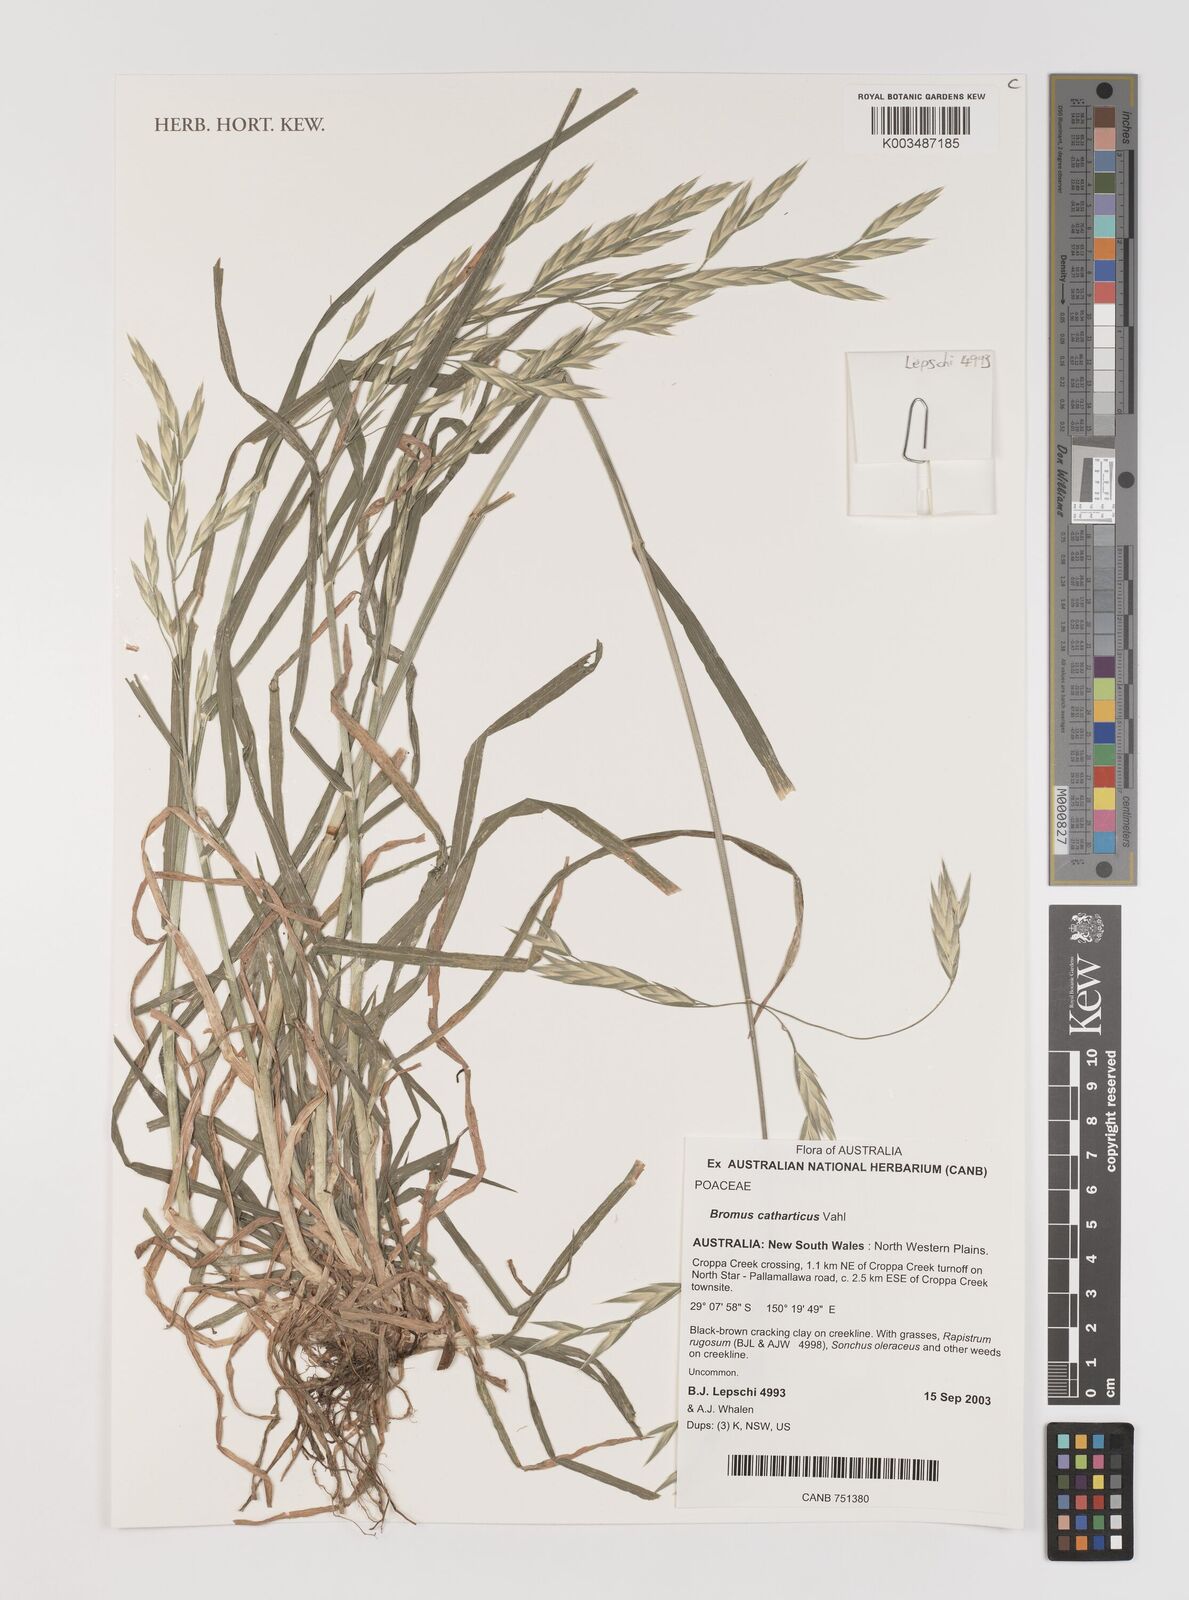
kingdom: Plantae
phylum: Tracheophyta
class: Liliopsida
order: Poales
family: Poaceae
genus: Bromus
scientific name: Bromus catharticus
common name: Rescuegrass
